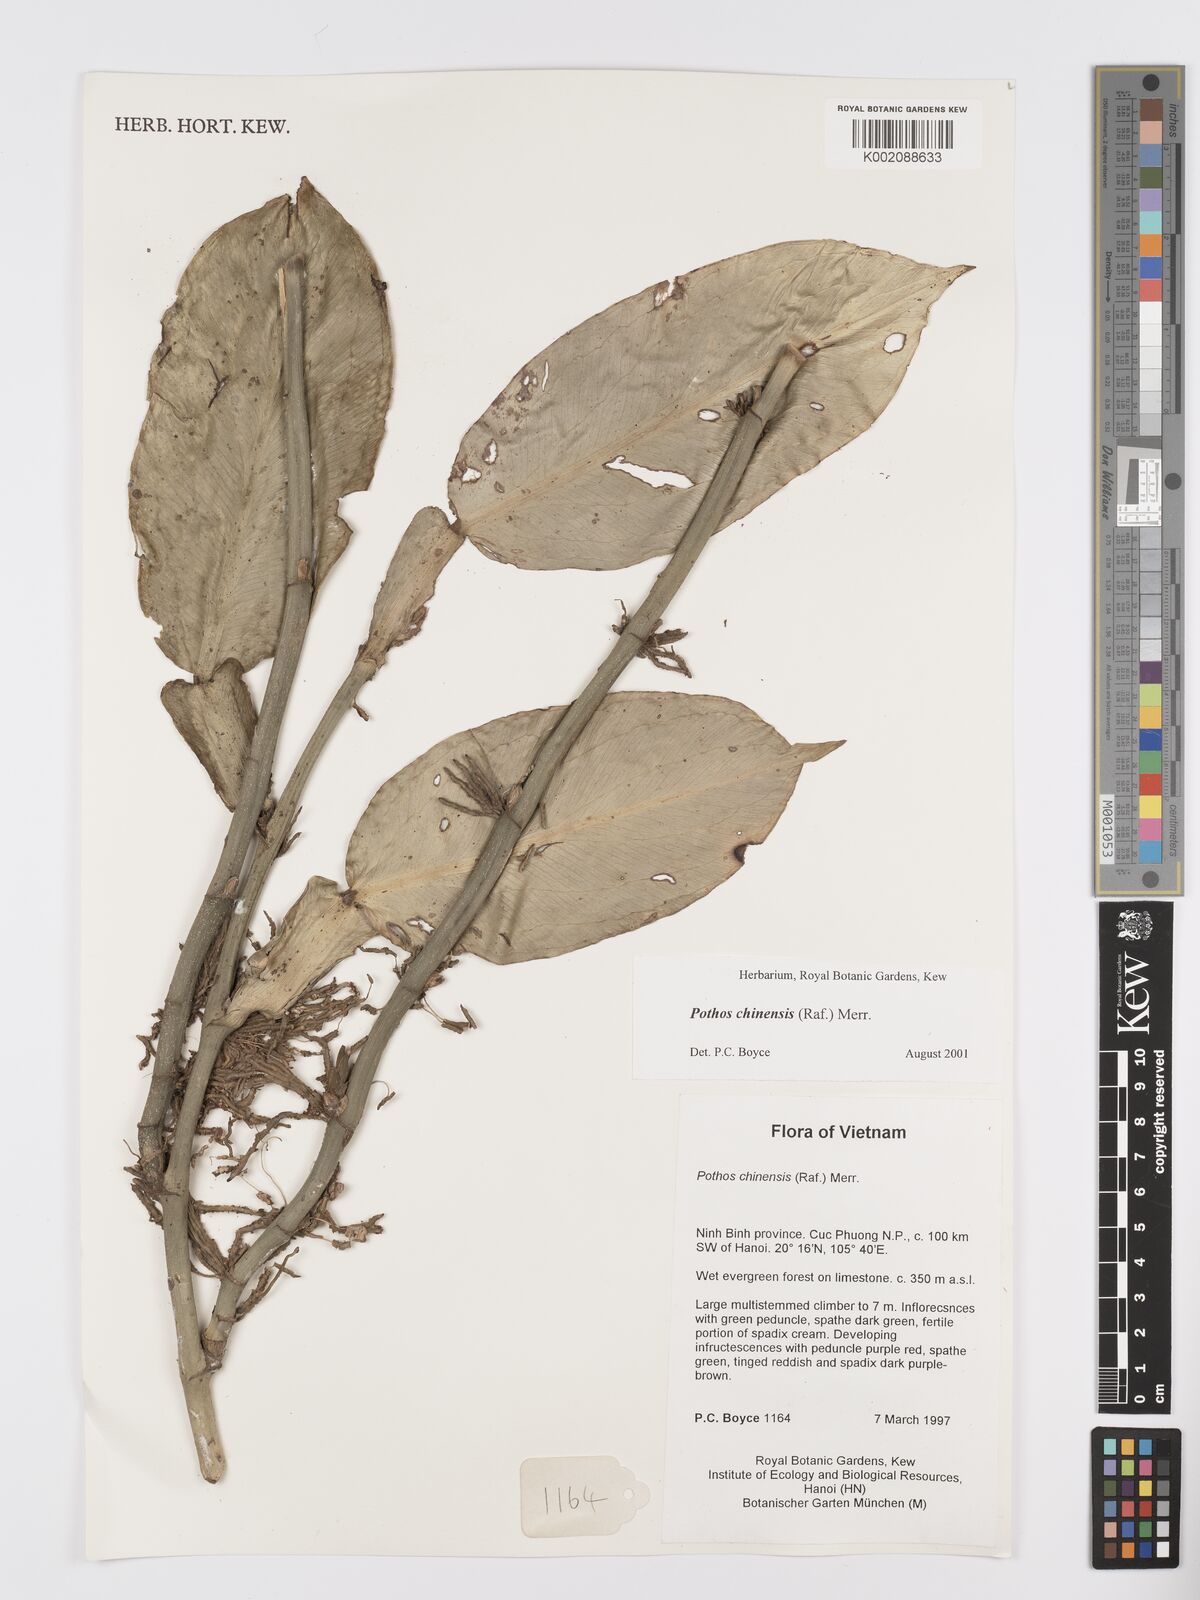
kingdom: Plantae
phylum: Tracheophyta
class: Liliopsida
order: Alismatales
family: Araceae
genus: Pothos
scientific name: Pothos chinensis
